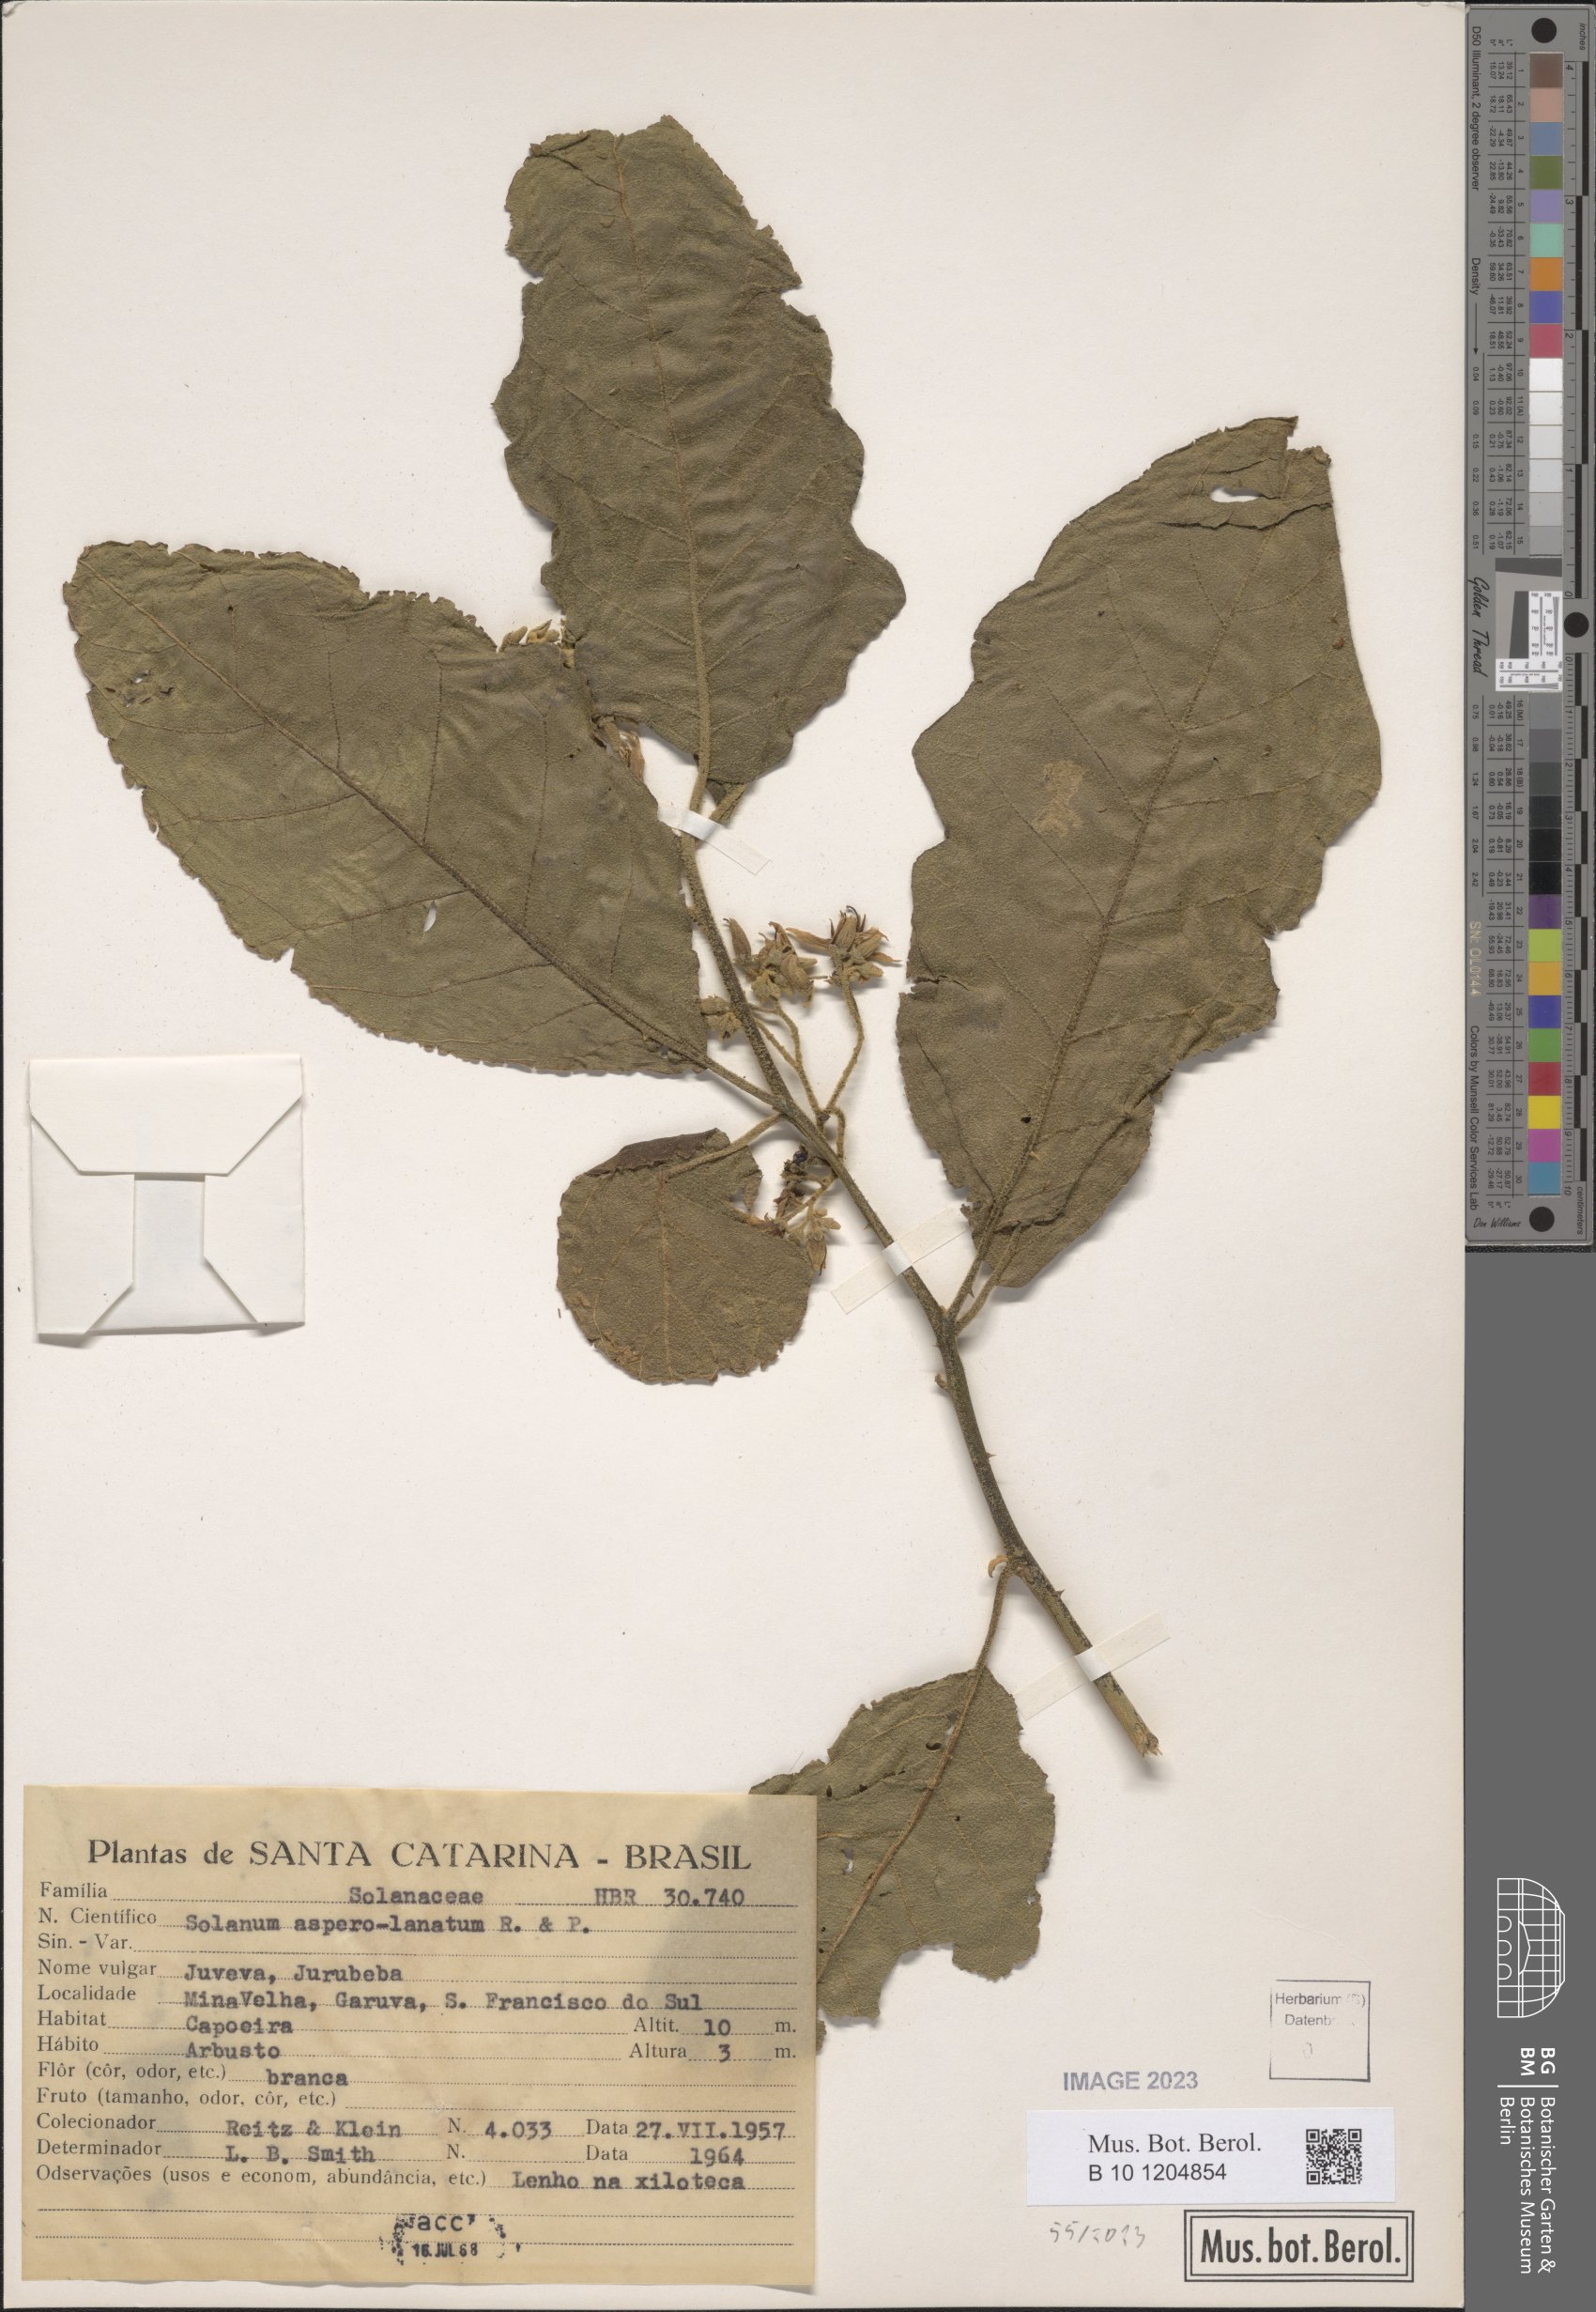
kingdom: Plantae
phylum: Tracheophyta
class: Magnoliopsida
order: Solanales
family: Solanaceae
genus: Solanum
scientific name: Solanum asperolanatum
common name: Devil's-fig
